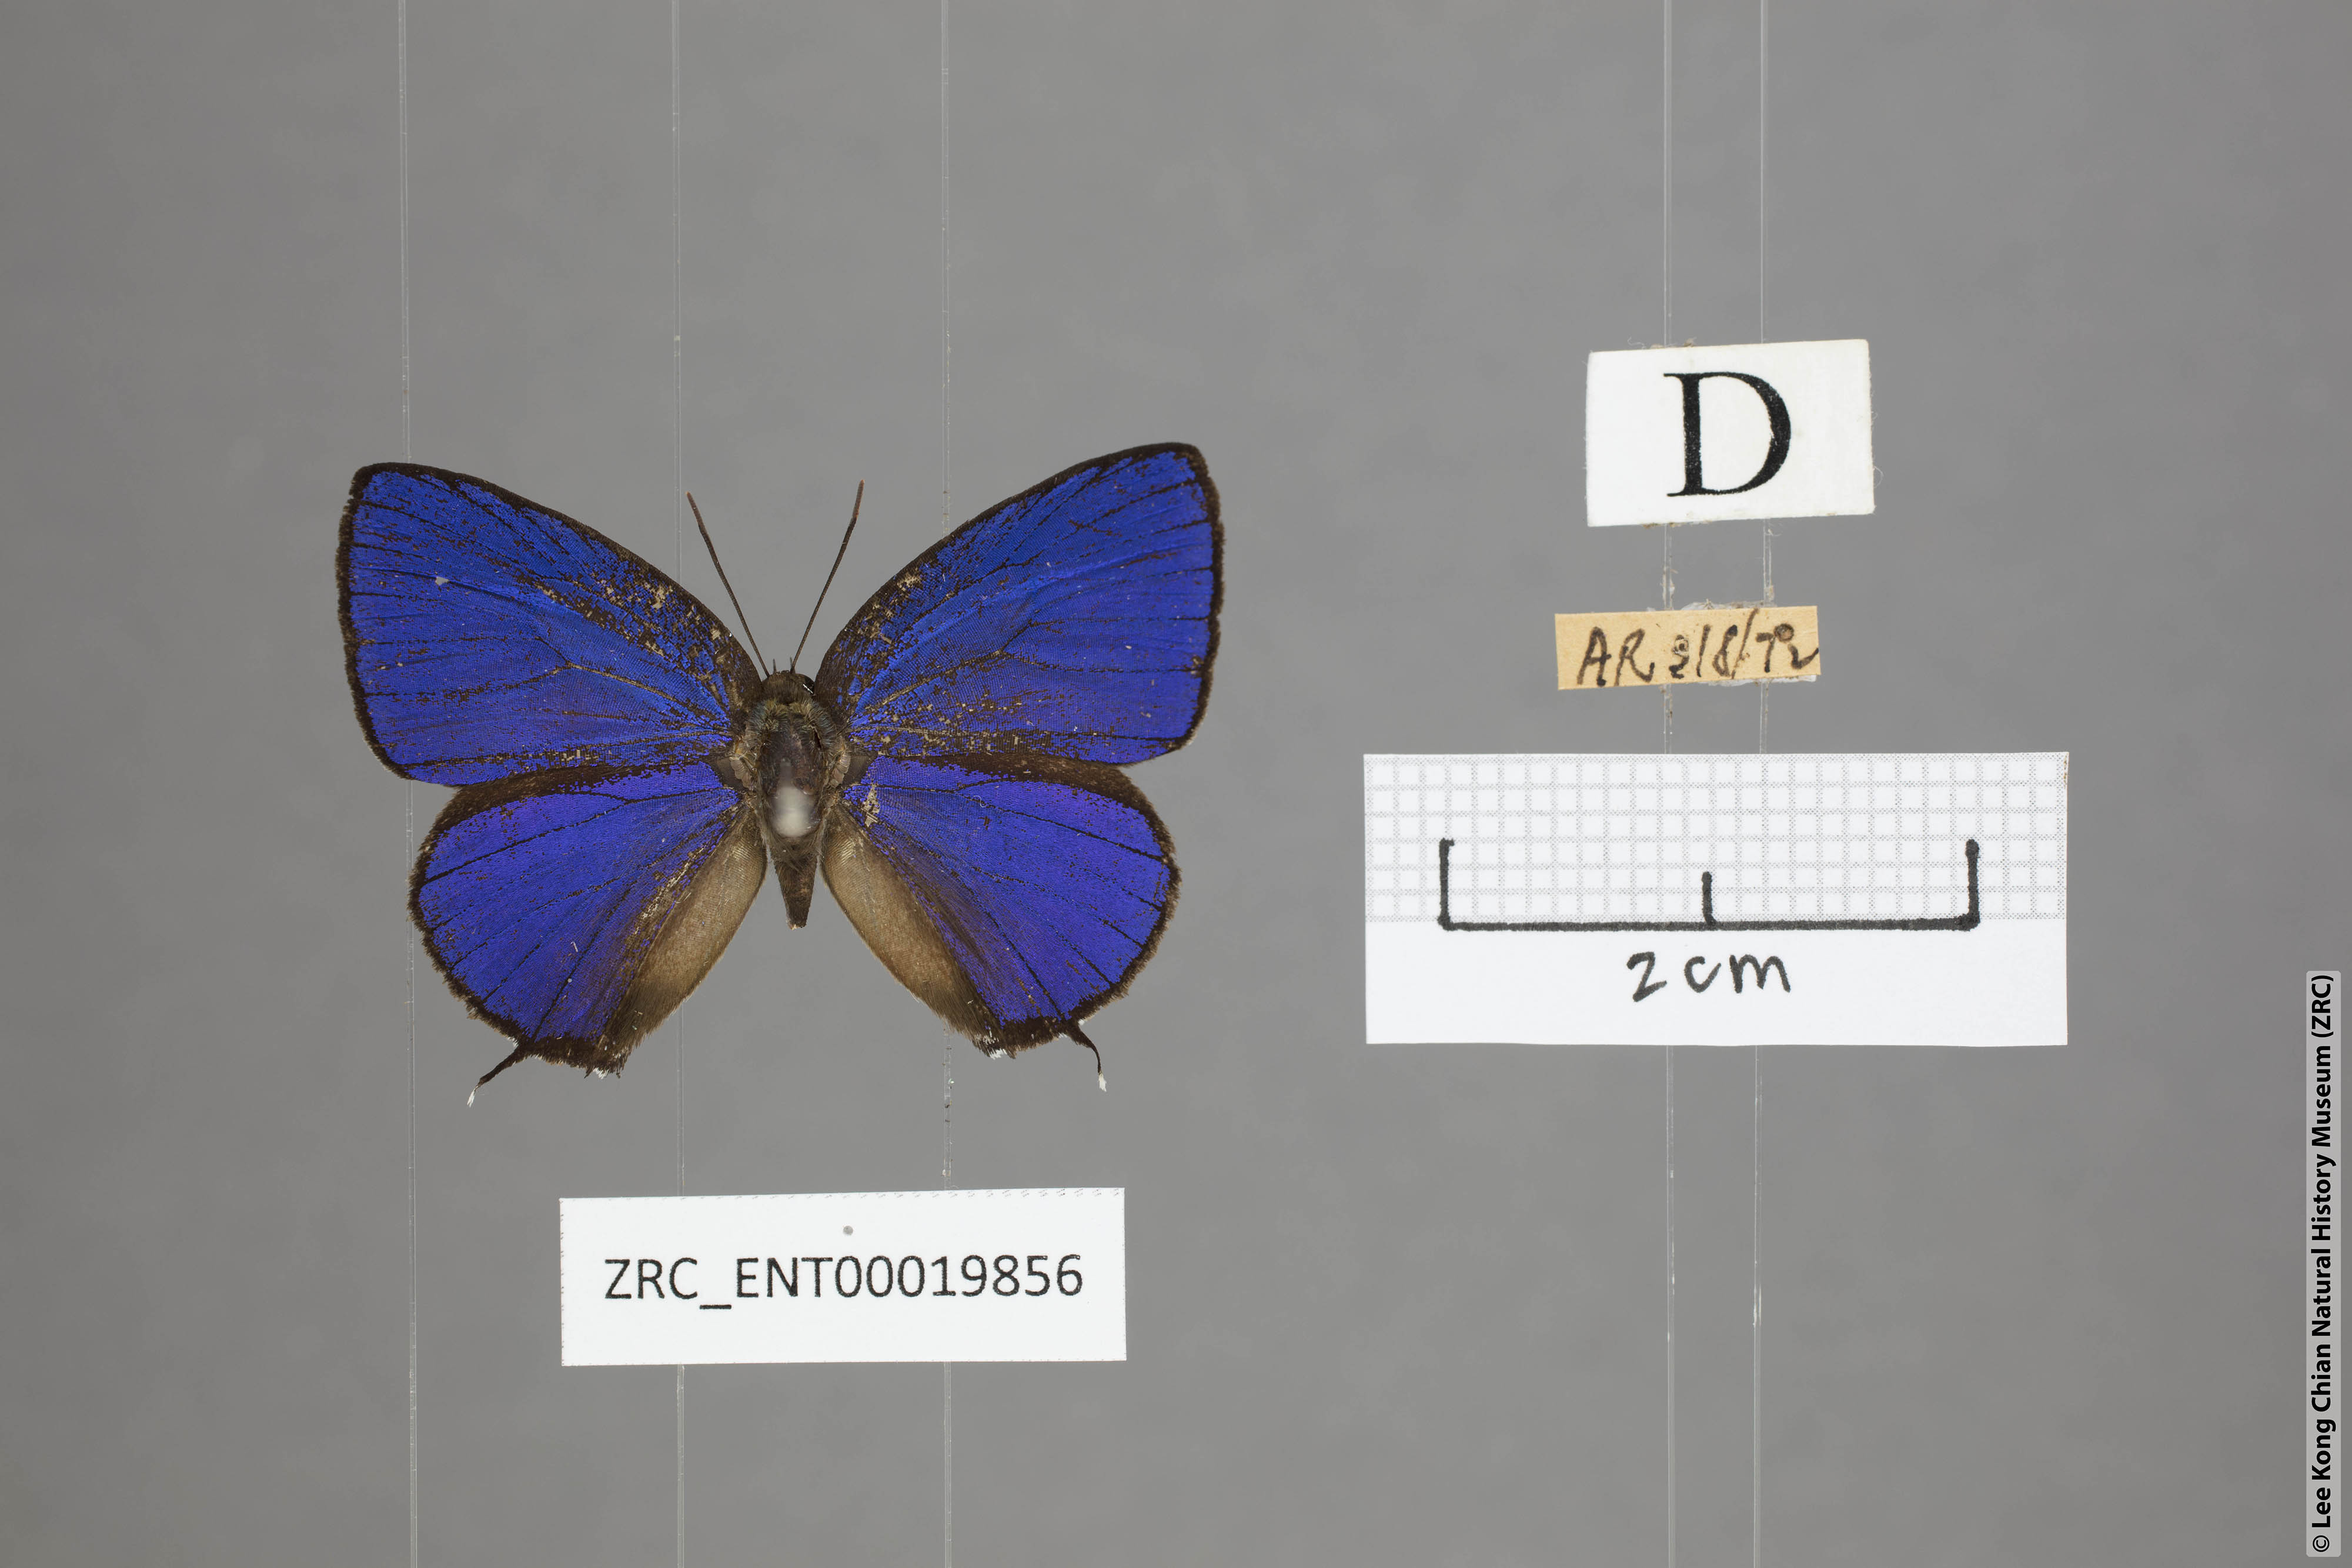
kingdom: Animalia
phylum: Arthropoda
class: Insecta
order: Lepidoptera
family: Lycaenidae
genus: Arhopala
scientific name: Arhopala sublustris
